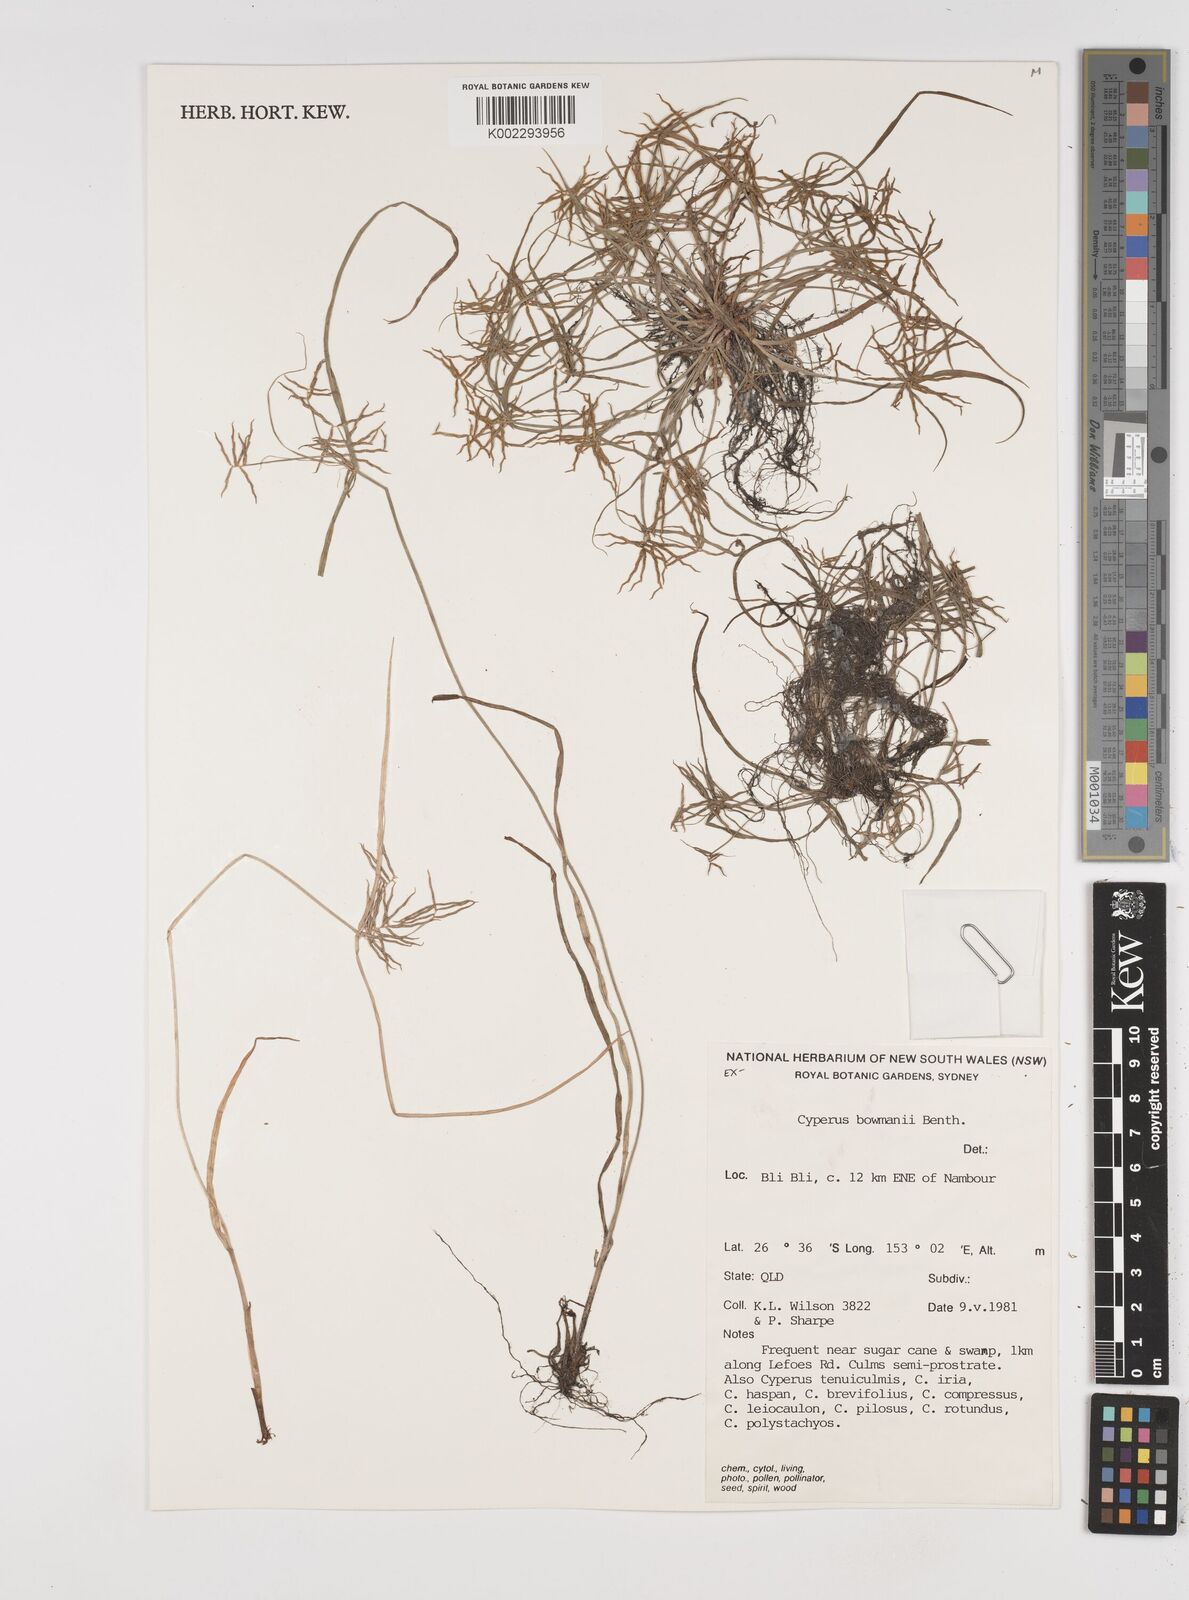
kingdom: Plantae
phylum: Tracheophyta
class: Liliopsida
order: Poales
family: Cyperaceae
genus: Cyperus
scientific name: Cyperus bowmanni
